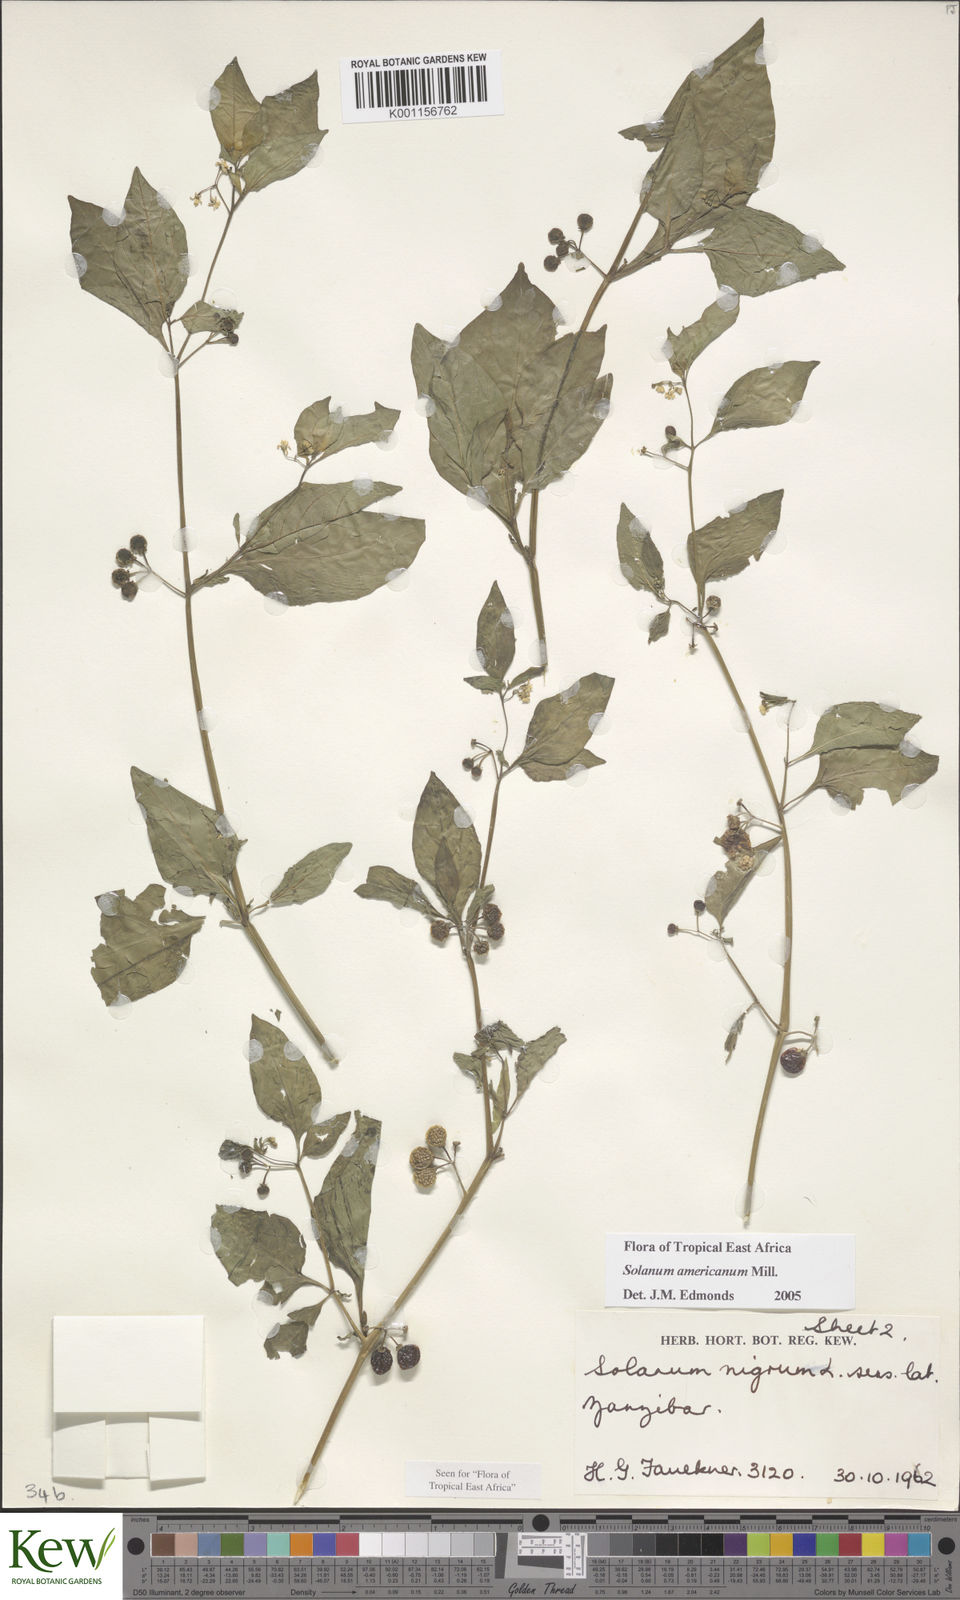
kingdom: Plantae
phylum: Tracheophyta
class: Magnoliopsida
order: Solanales
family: Solanaceae
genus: Solanum
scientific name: Solanum americanum
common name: American black nightshade
